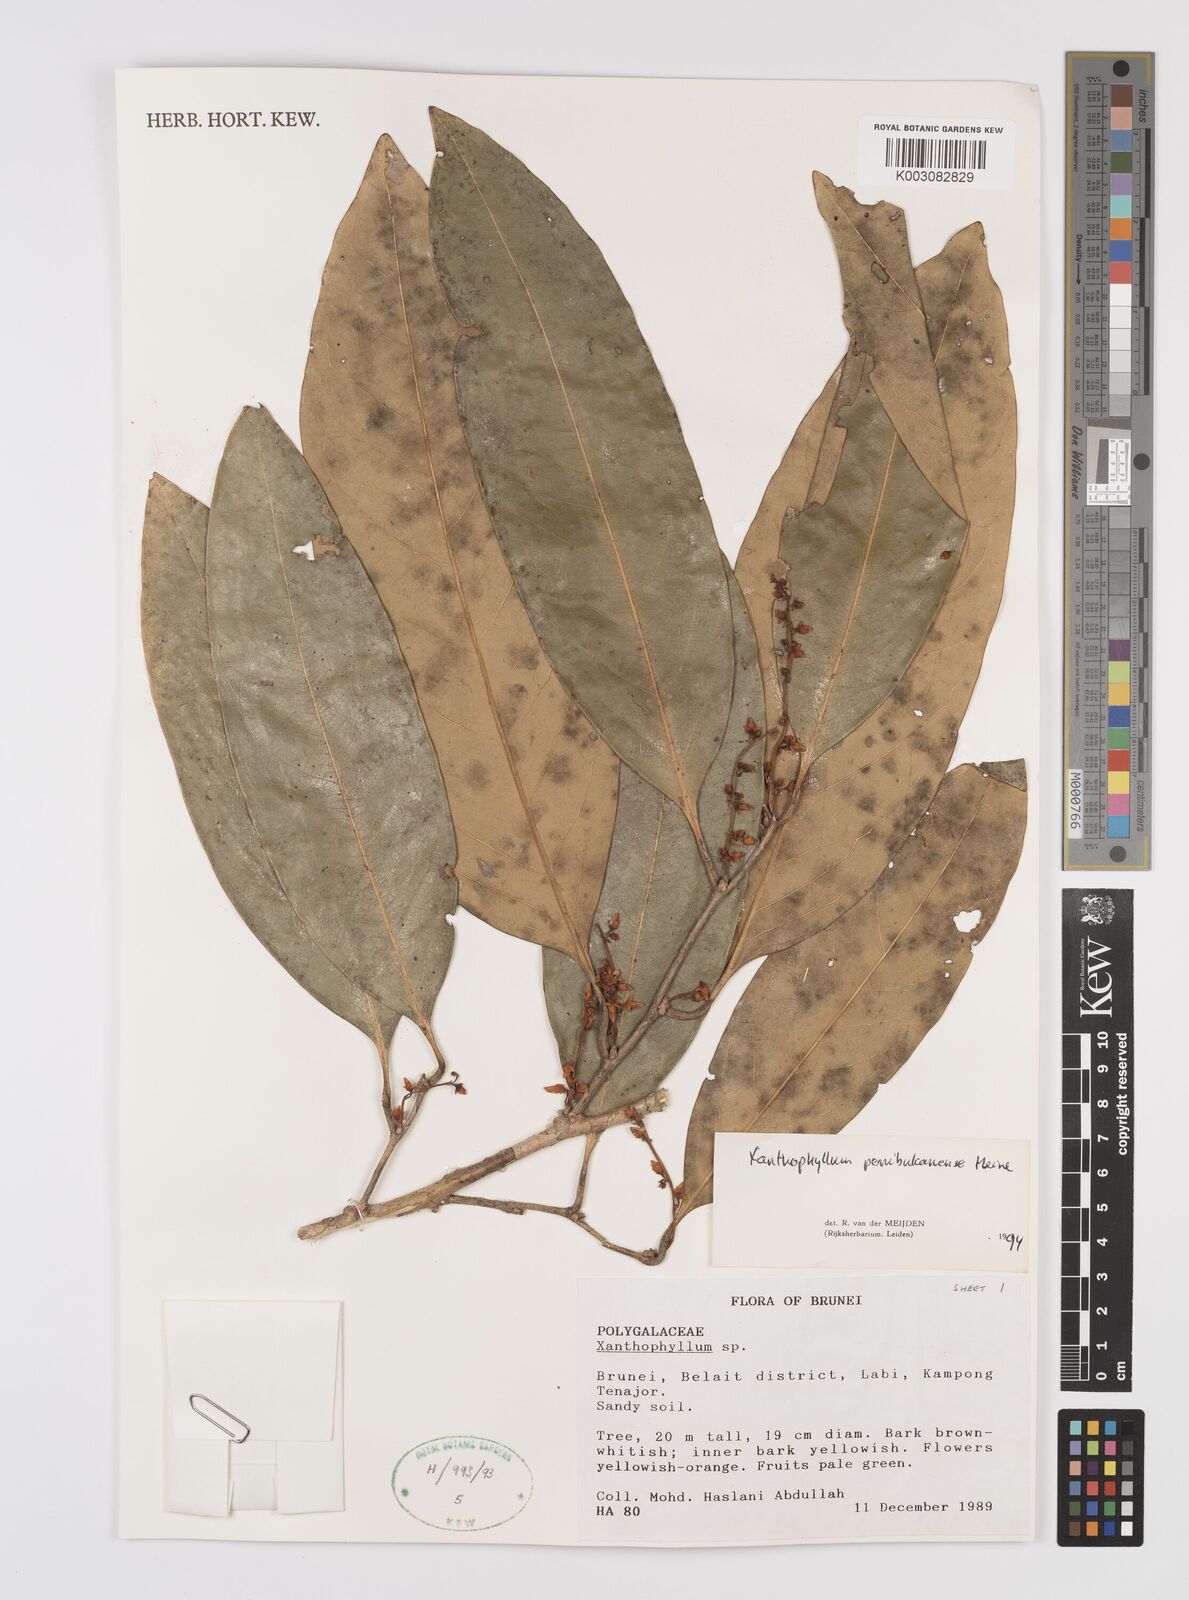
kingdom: Plantae
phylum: Tracheophyta
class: Magnoliopsida
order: Fabales
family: Polygalaceae
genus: Xanthophyllum
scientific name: Xanthophyllum penibukanense
